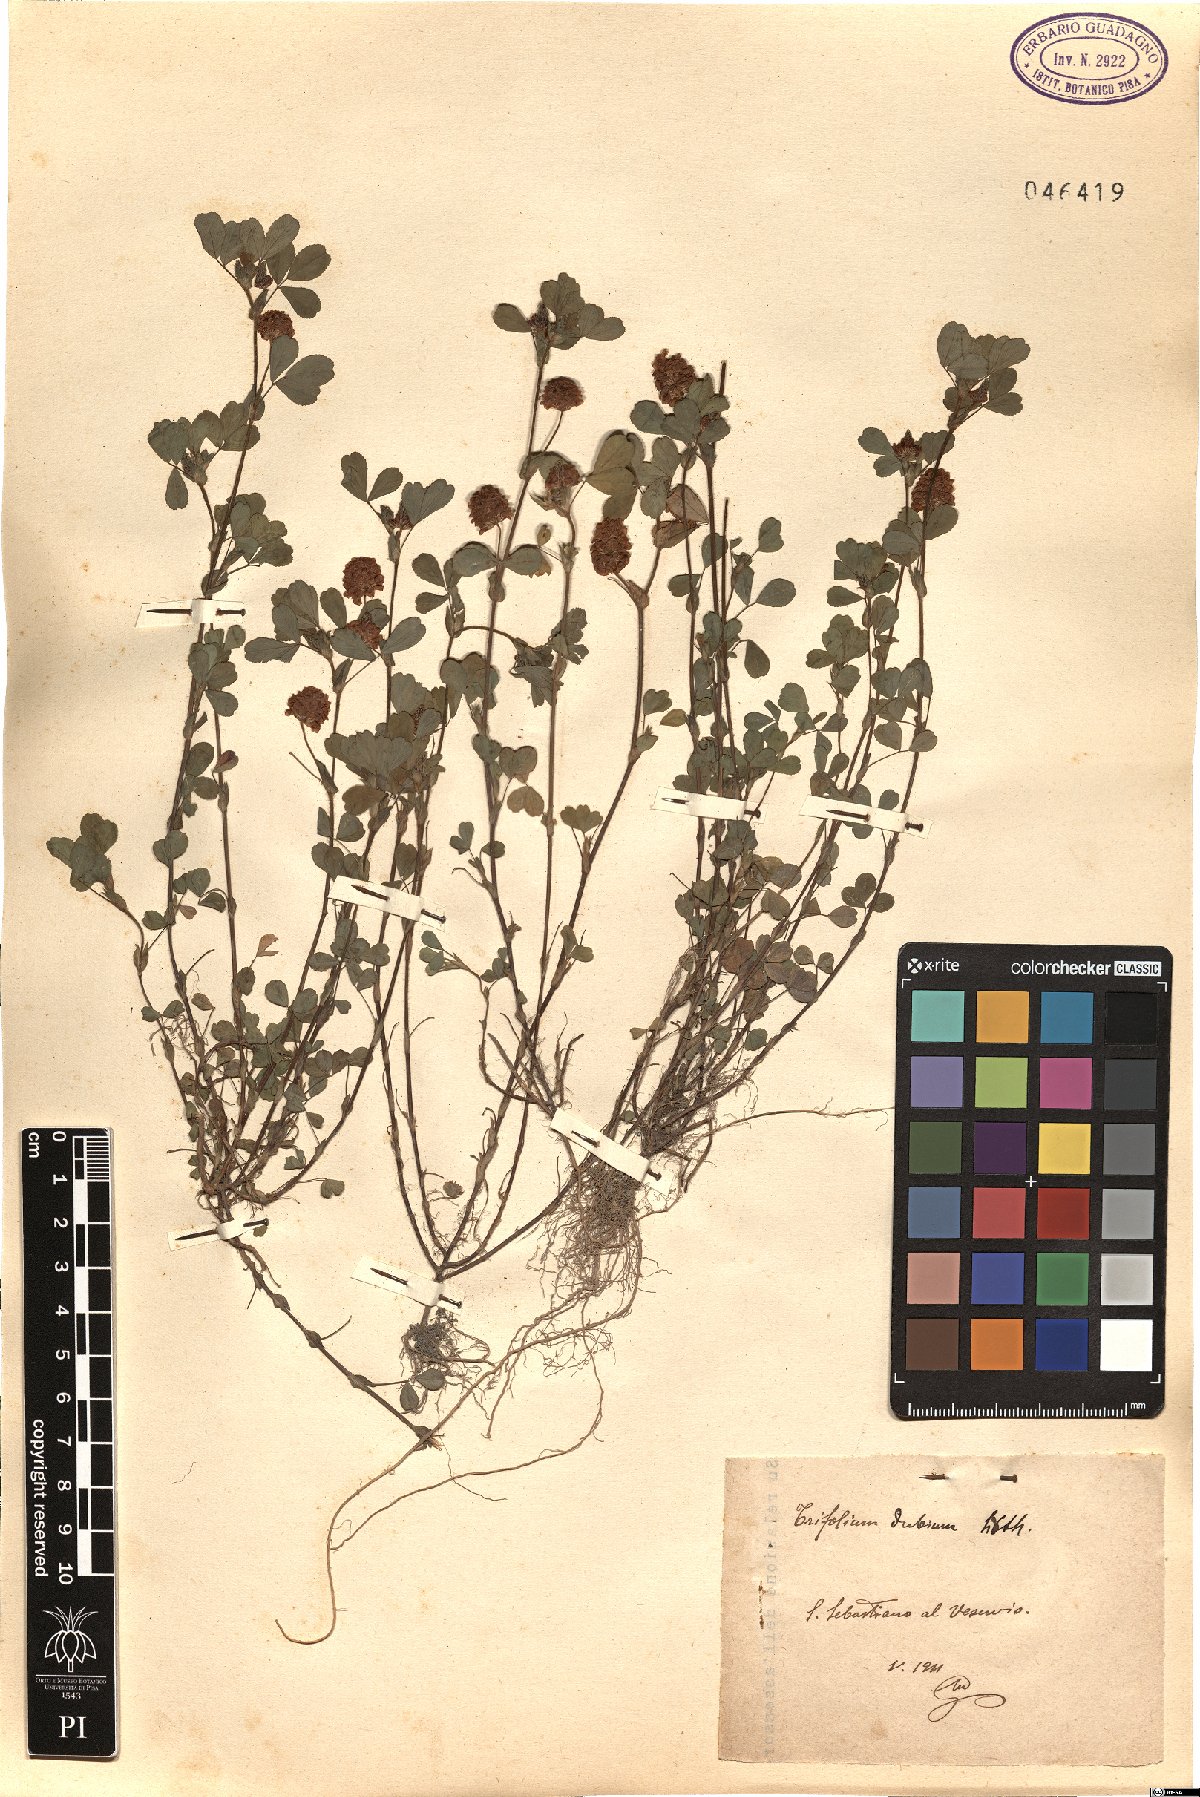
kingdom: Plantae
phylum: Tracheophyta
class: Magnoliopsida
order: Fabales
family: Fabaceae
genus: Trifolium
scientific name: Trifolium dubium
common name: Suckling clover
